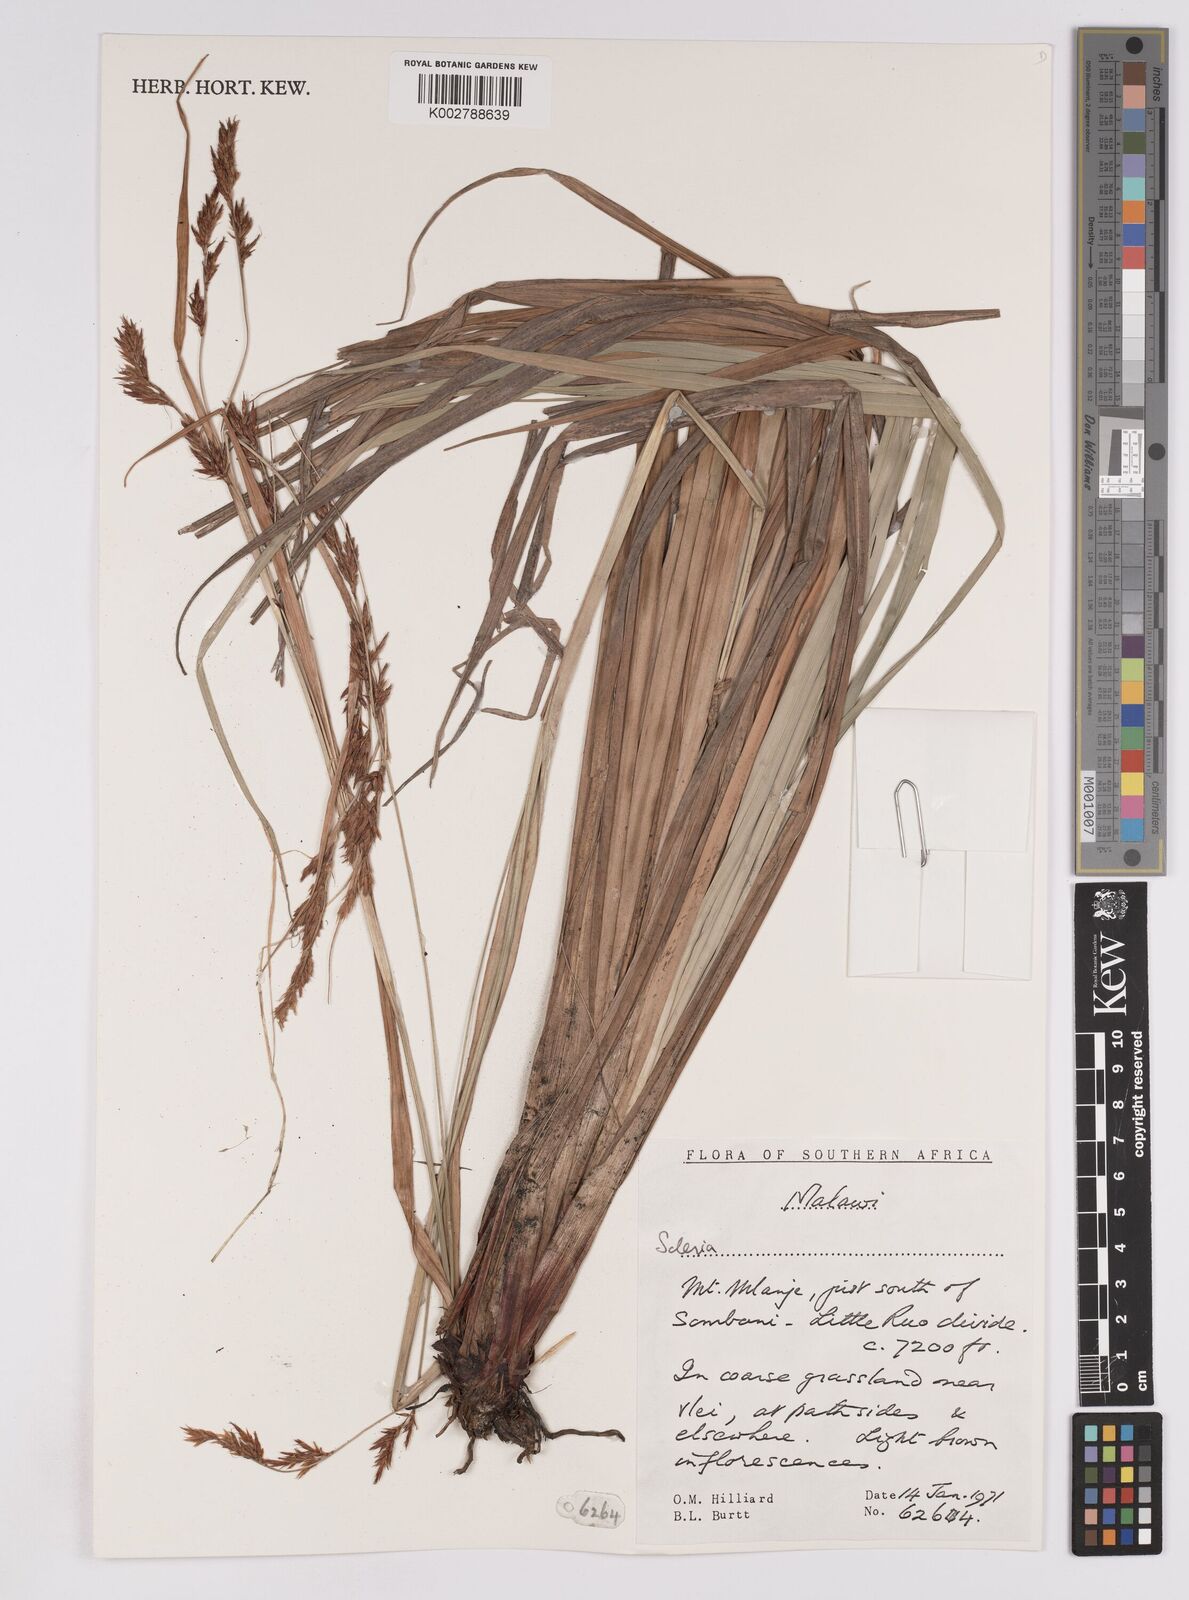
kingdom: Plantae
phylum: Tracheophyta
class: Liliopsida
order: Poales
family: Cyperaceae
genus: Scleria
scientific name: Scleria
